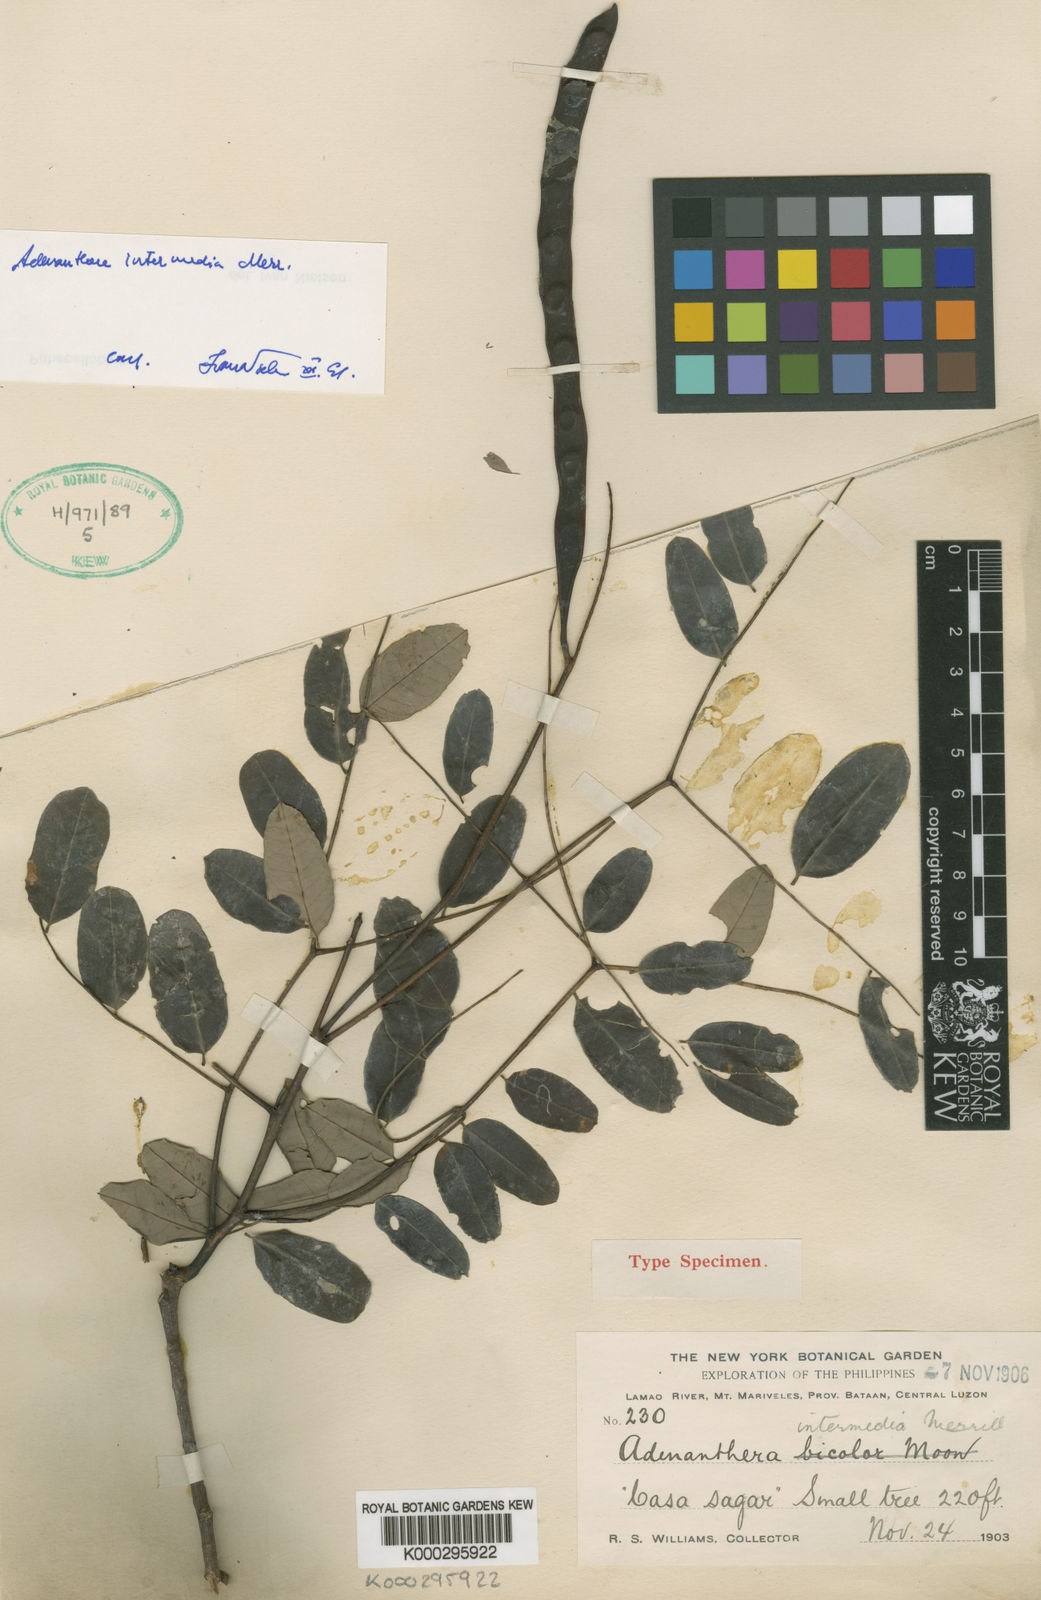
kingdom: Plantae
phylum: Tracheophyta
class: Magnoliopsida
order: Fabales
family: Fabaceae
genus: Adenanthera
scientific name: Adenanthera intermedia
